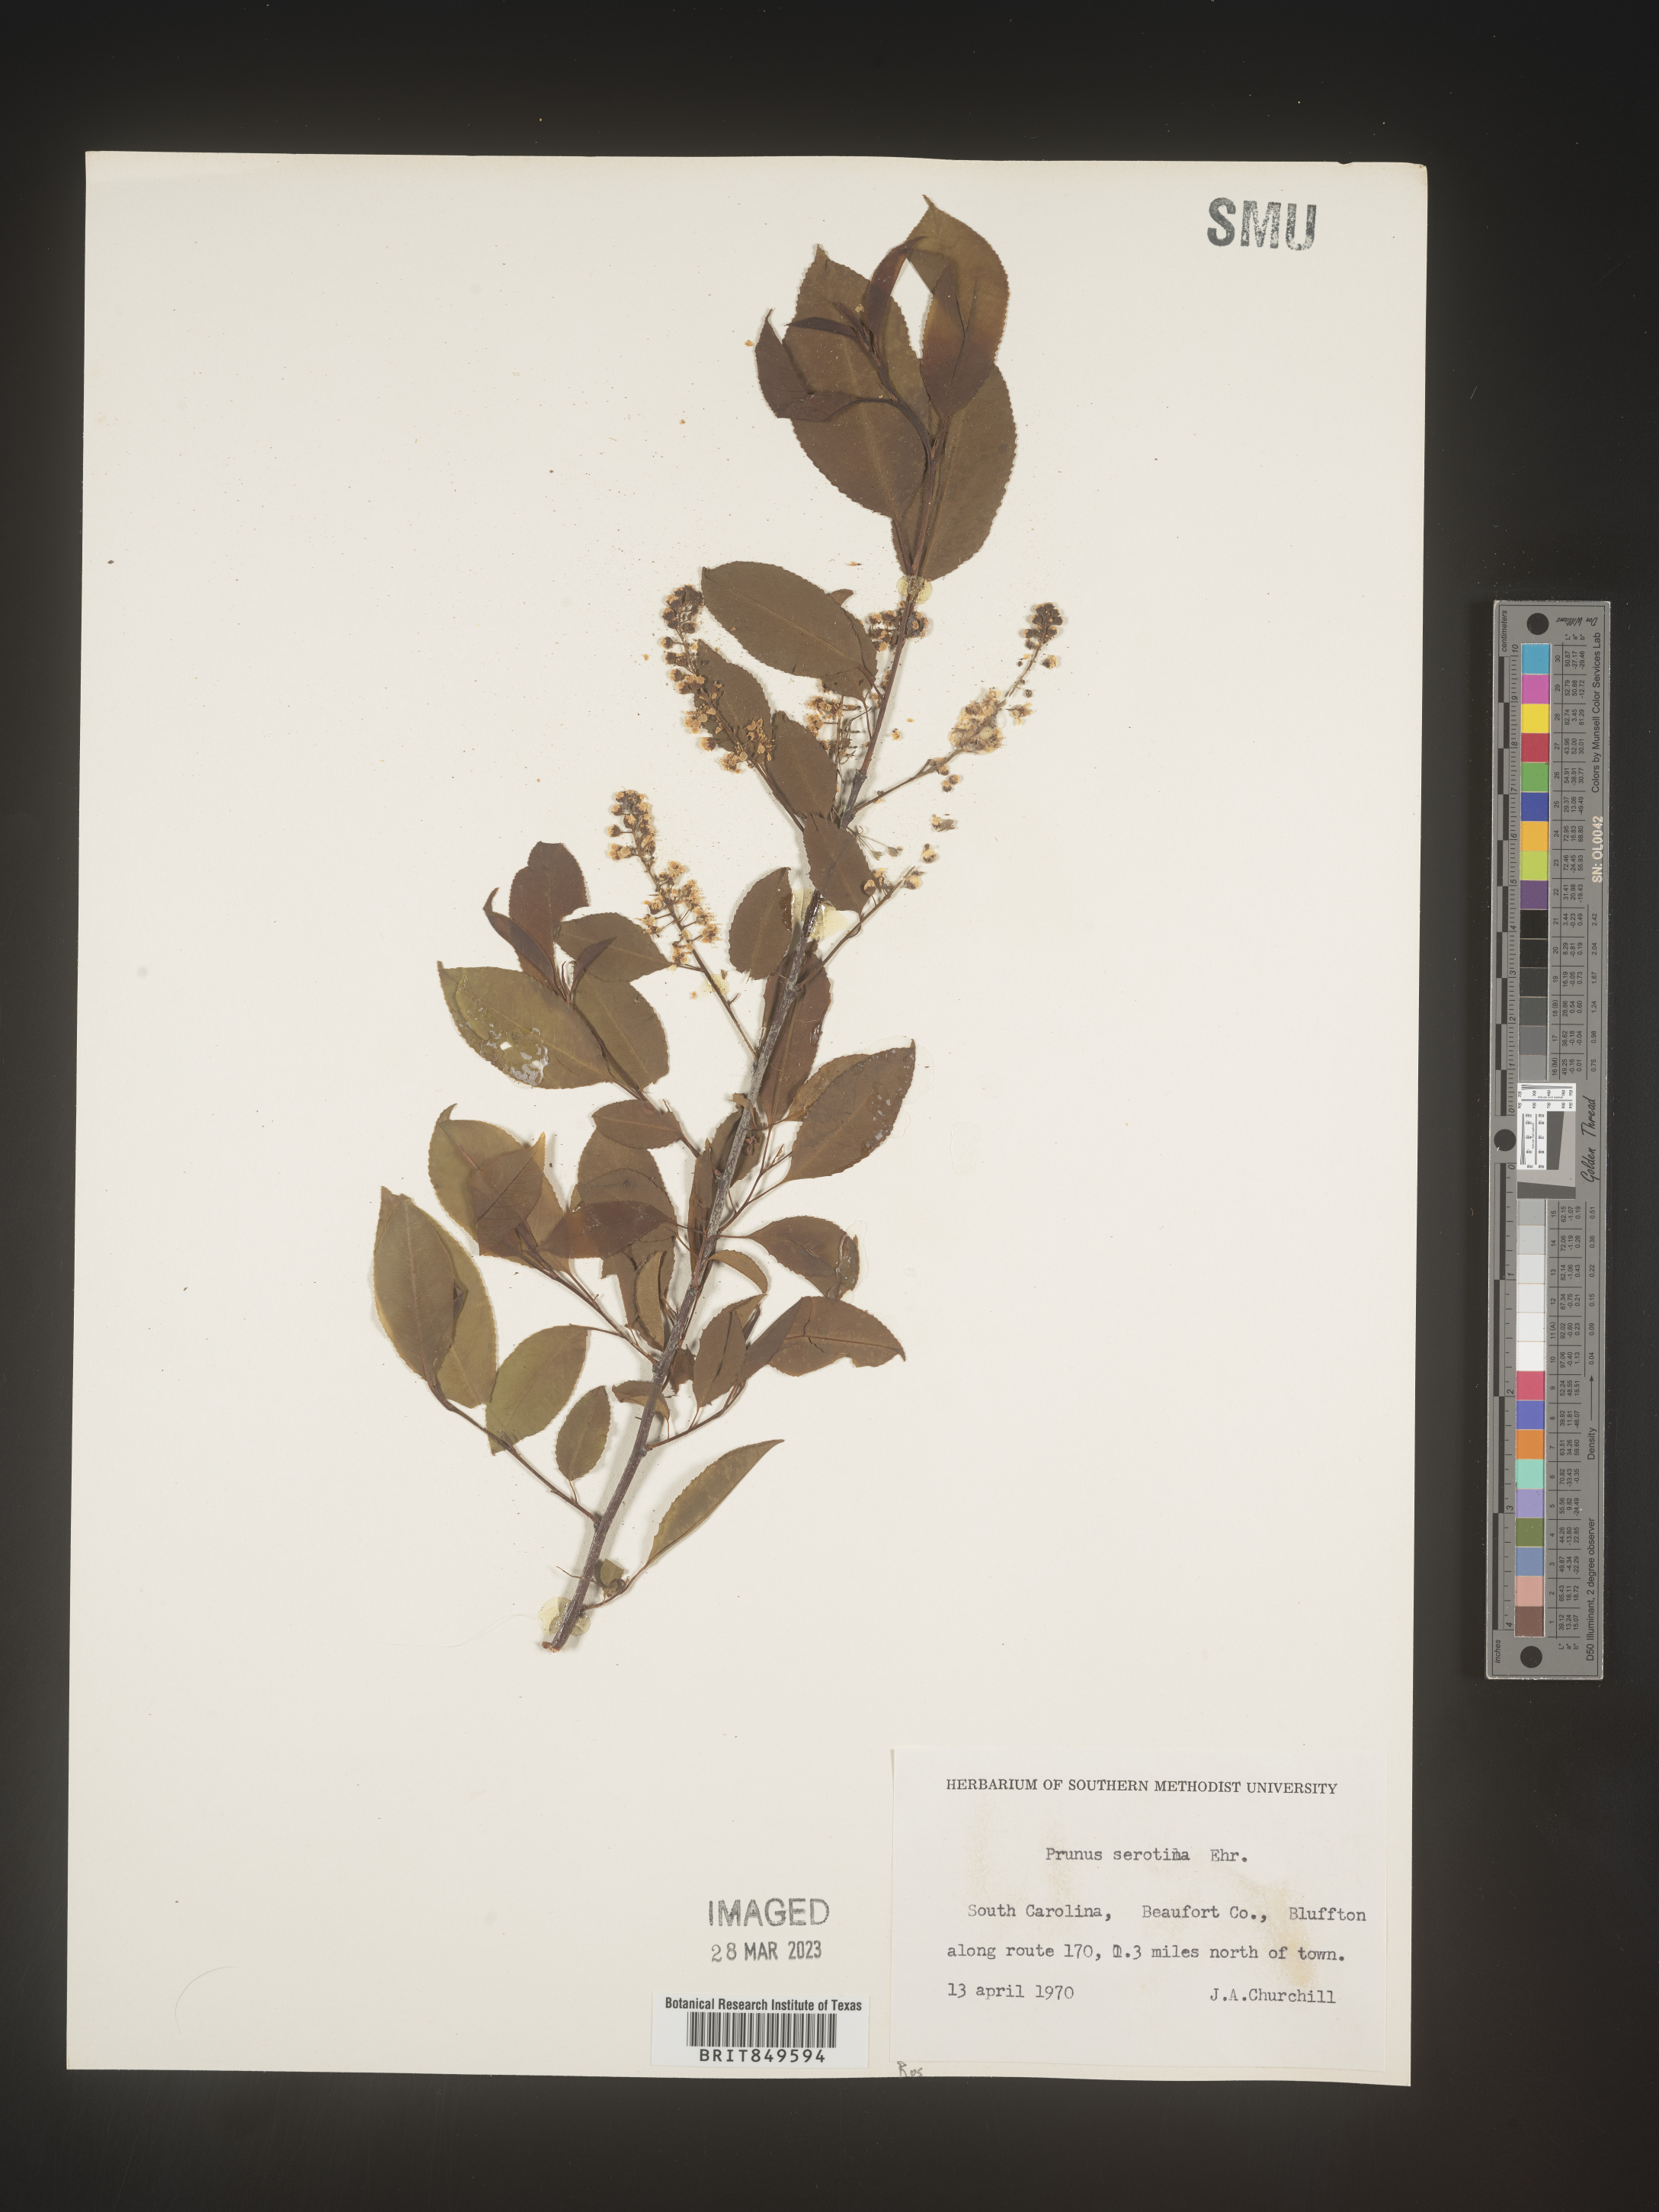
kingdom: Plantae
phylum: Tracheophyta
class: Magnoliopsida
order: Rosales
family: Rosaceae
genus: Prunus
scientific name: Prunus serotina
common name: Black cherry
